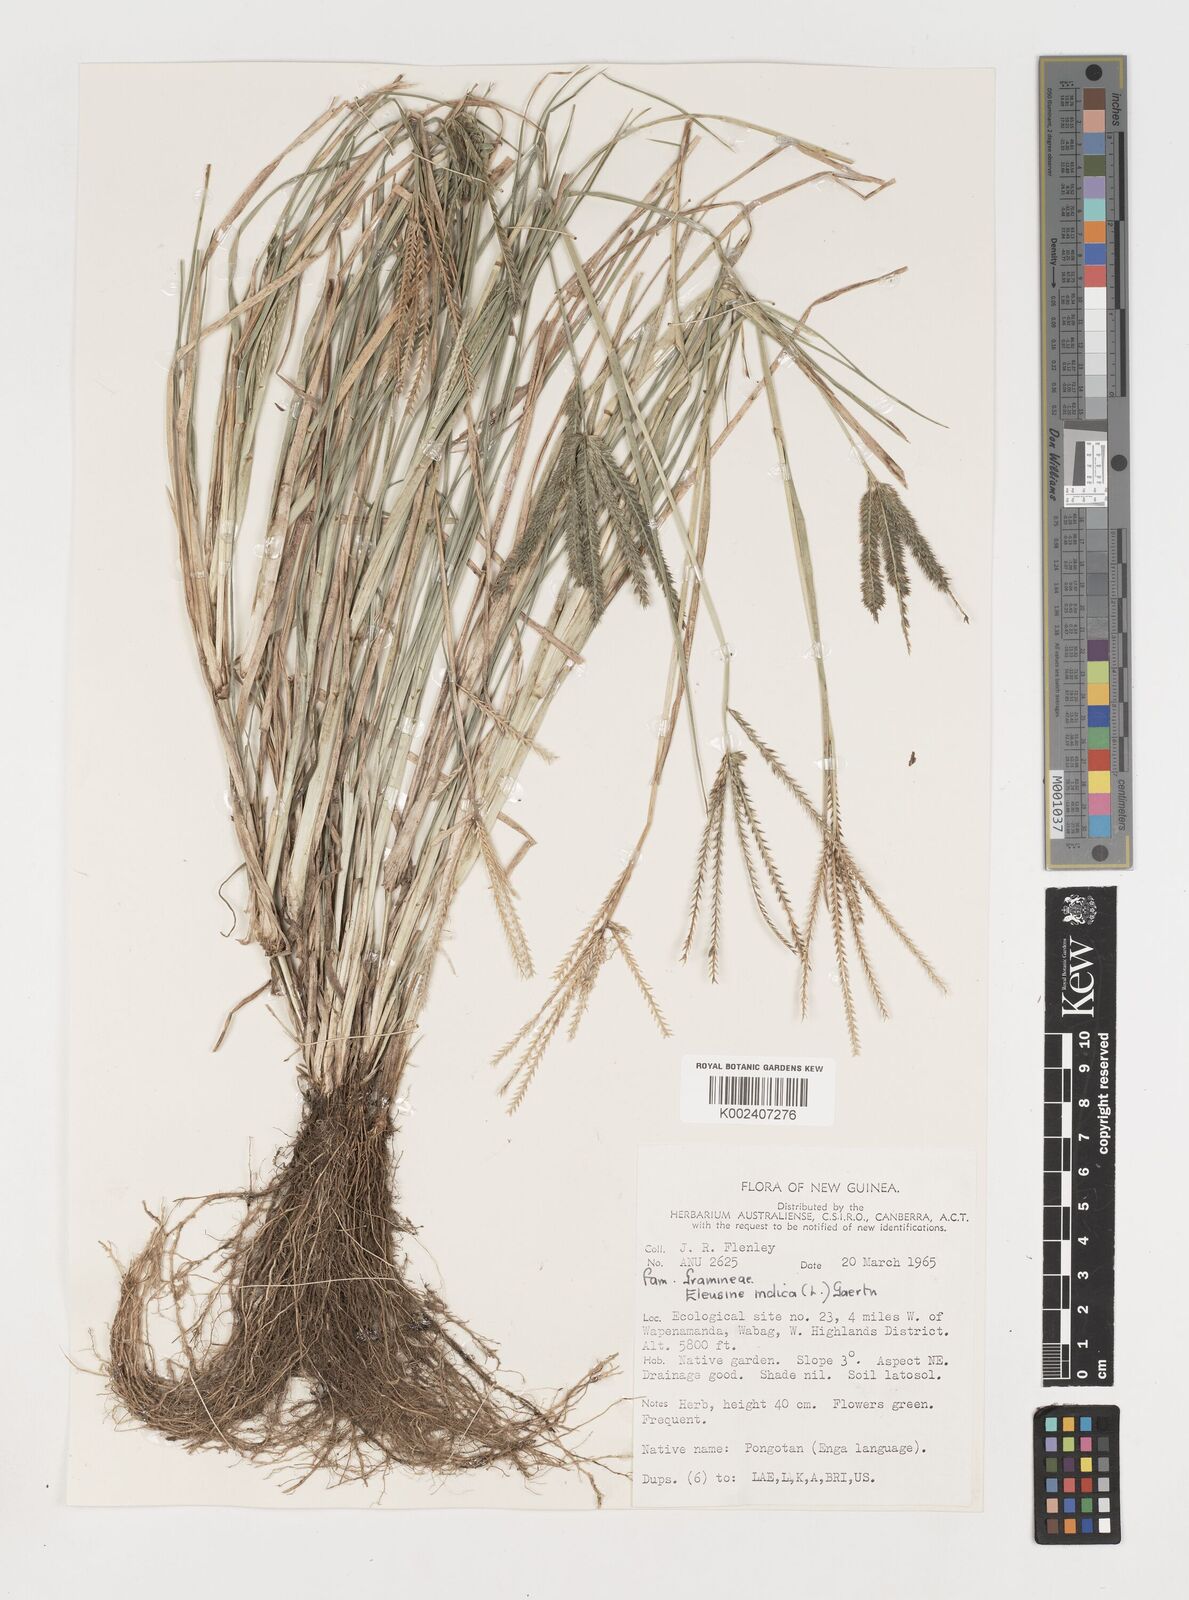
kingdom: Plantae
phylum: Tracheophyta
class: Liliopsida
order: Poales
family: Poaceae
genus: Eleusine
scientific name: Eleusine indica
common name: Yard-grass
